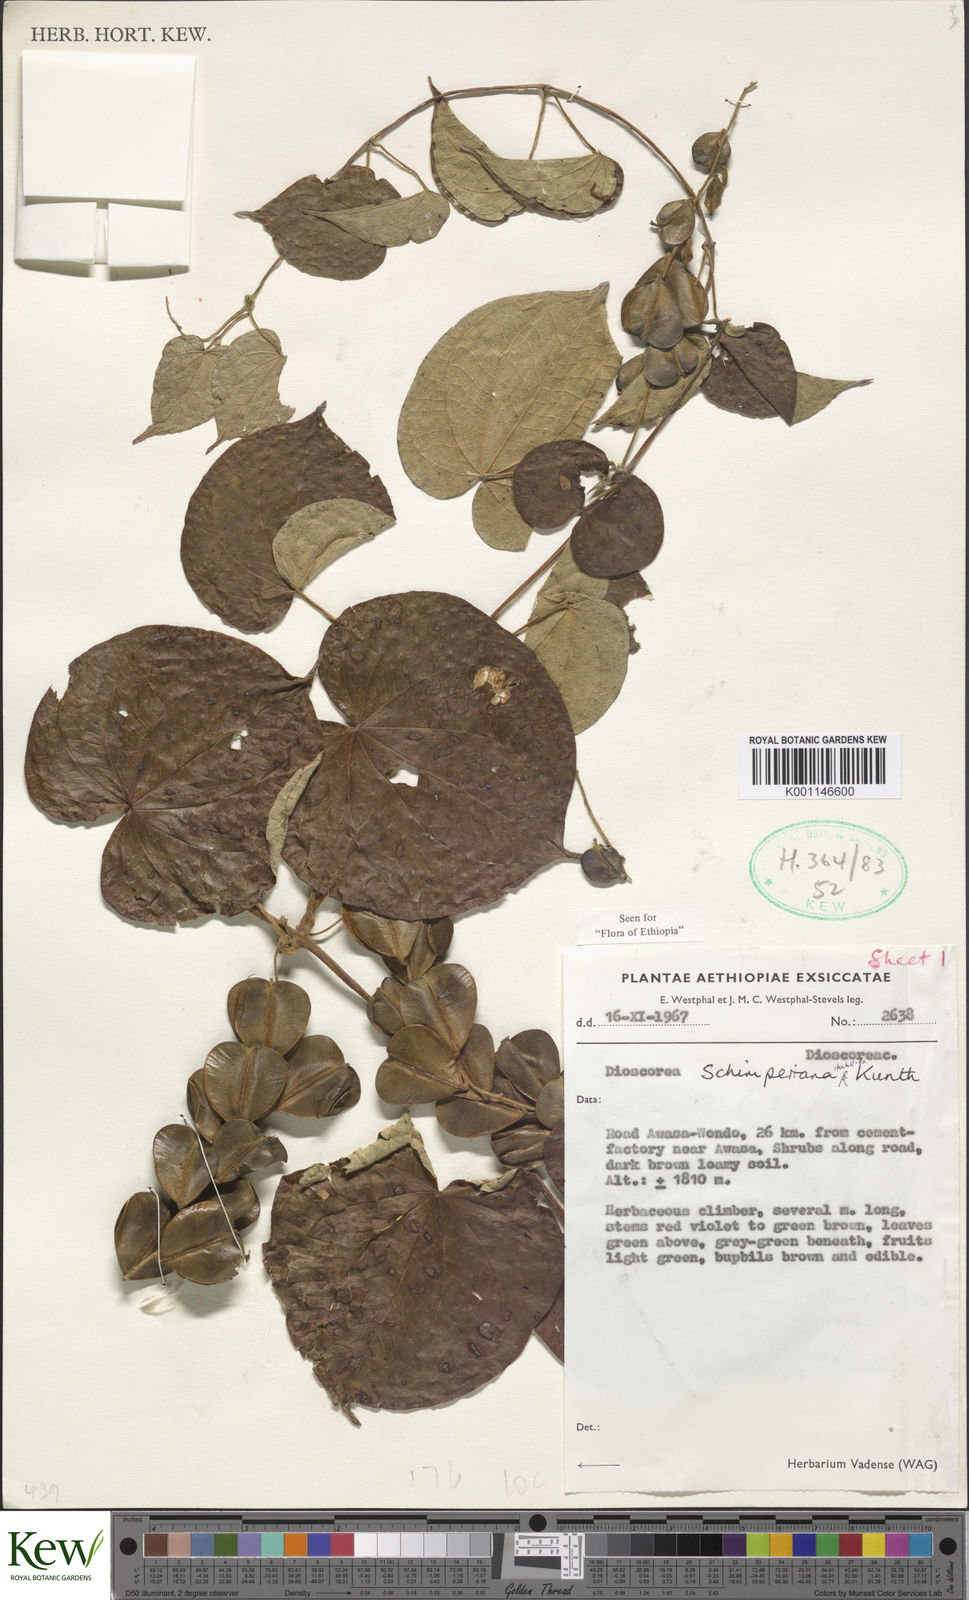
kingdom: Plantae
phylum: Tracheophyta
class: Liliopsida
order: Dioscoreales
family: Dioscoreaceae
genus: Dioscorea
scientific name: Dioscorea schimperiana
